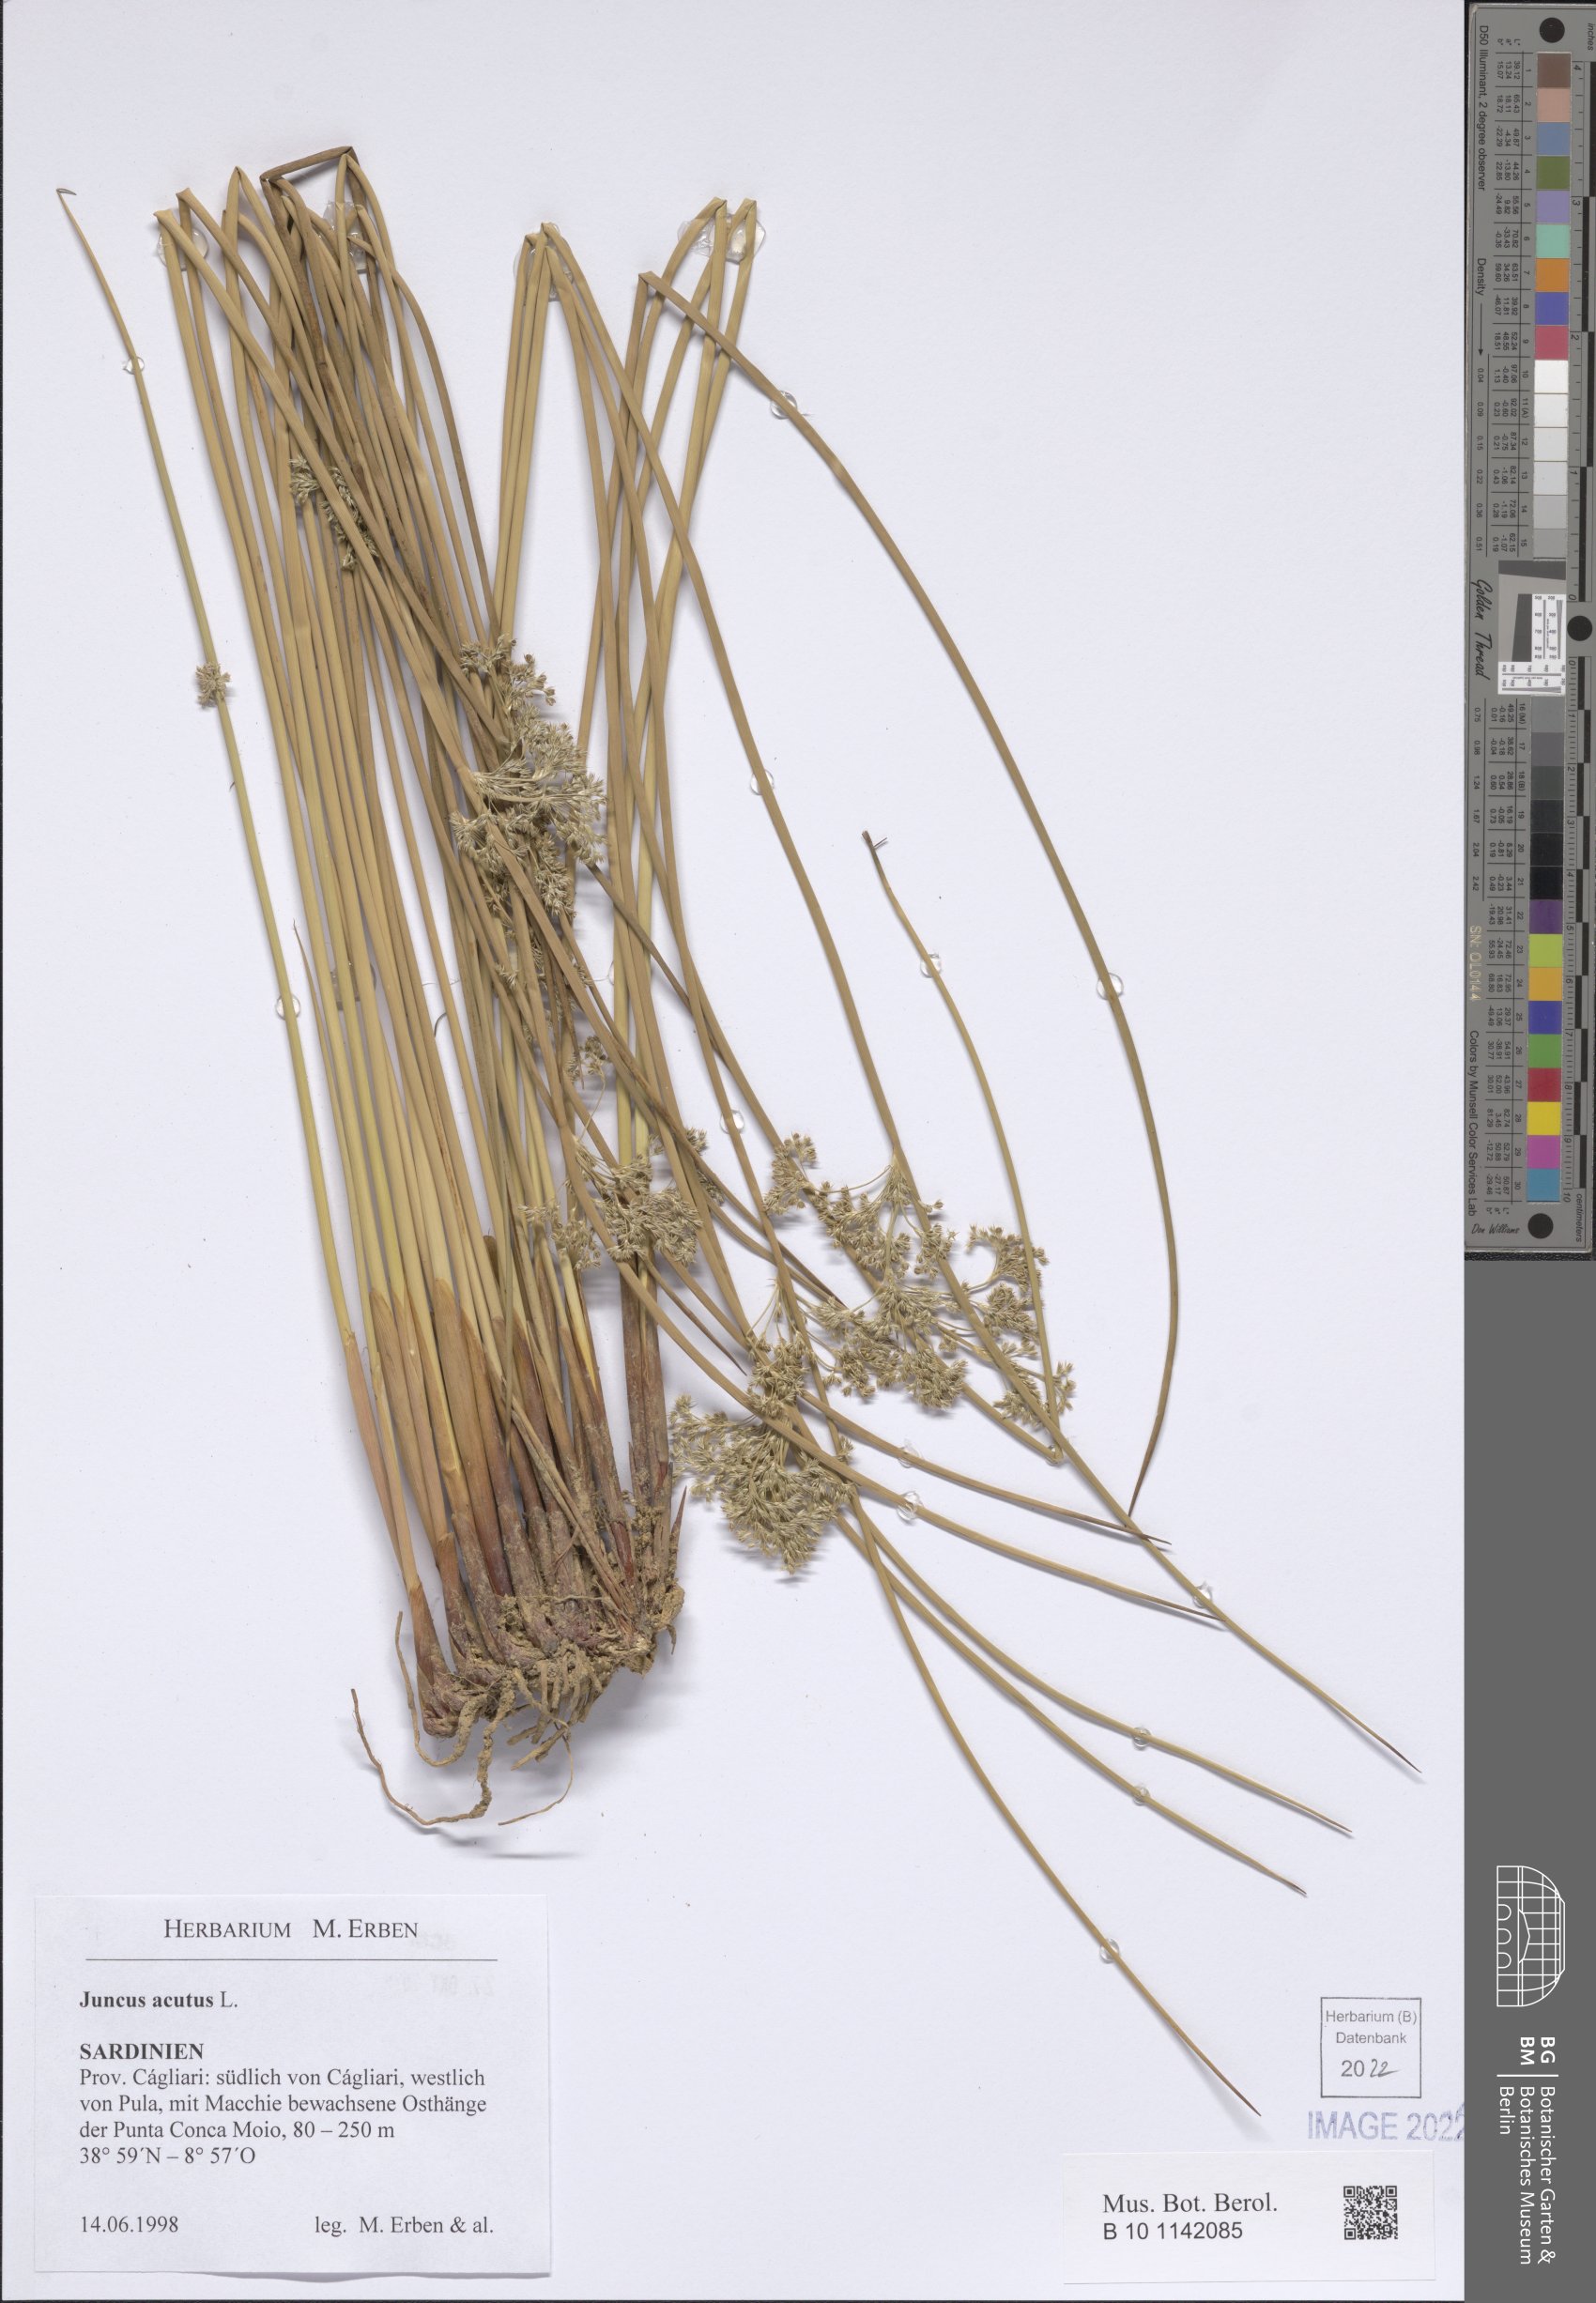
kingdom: Plantae
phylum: Tracheophyta
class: Liliopsida
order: Poales
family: Juncaceae
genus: Juncus
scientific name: Juncus acutus
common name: Sharp rush
